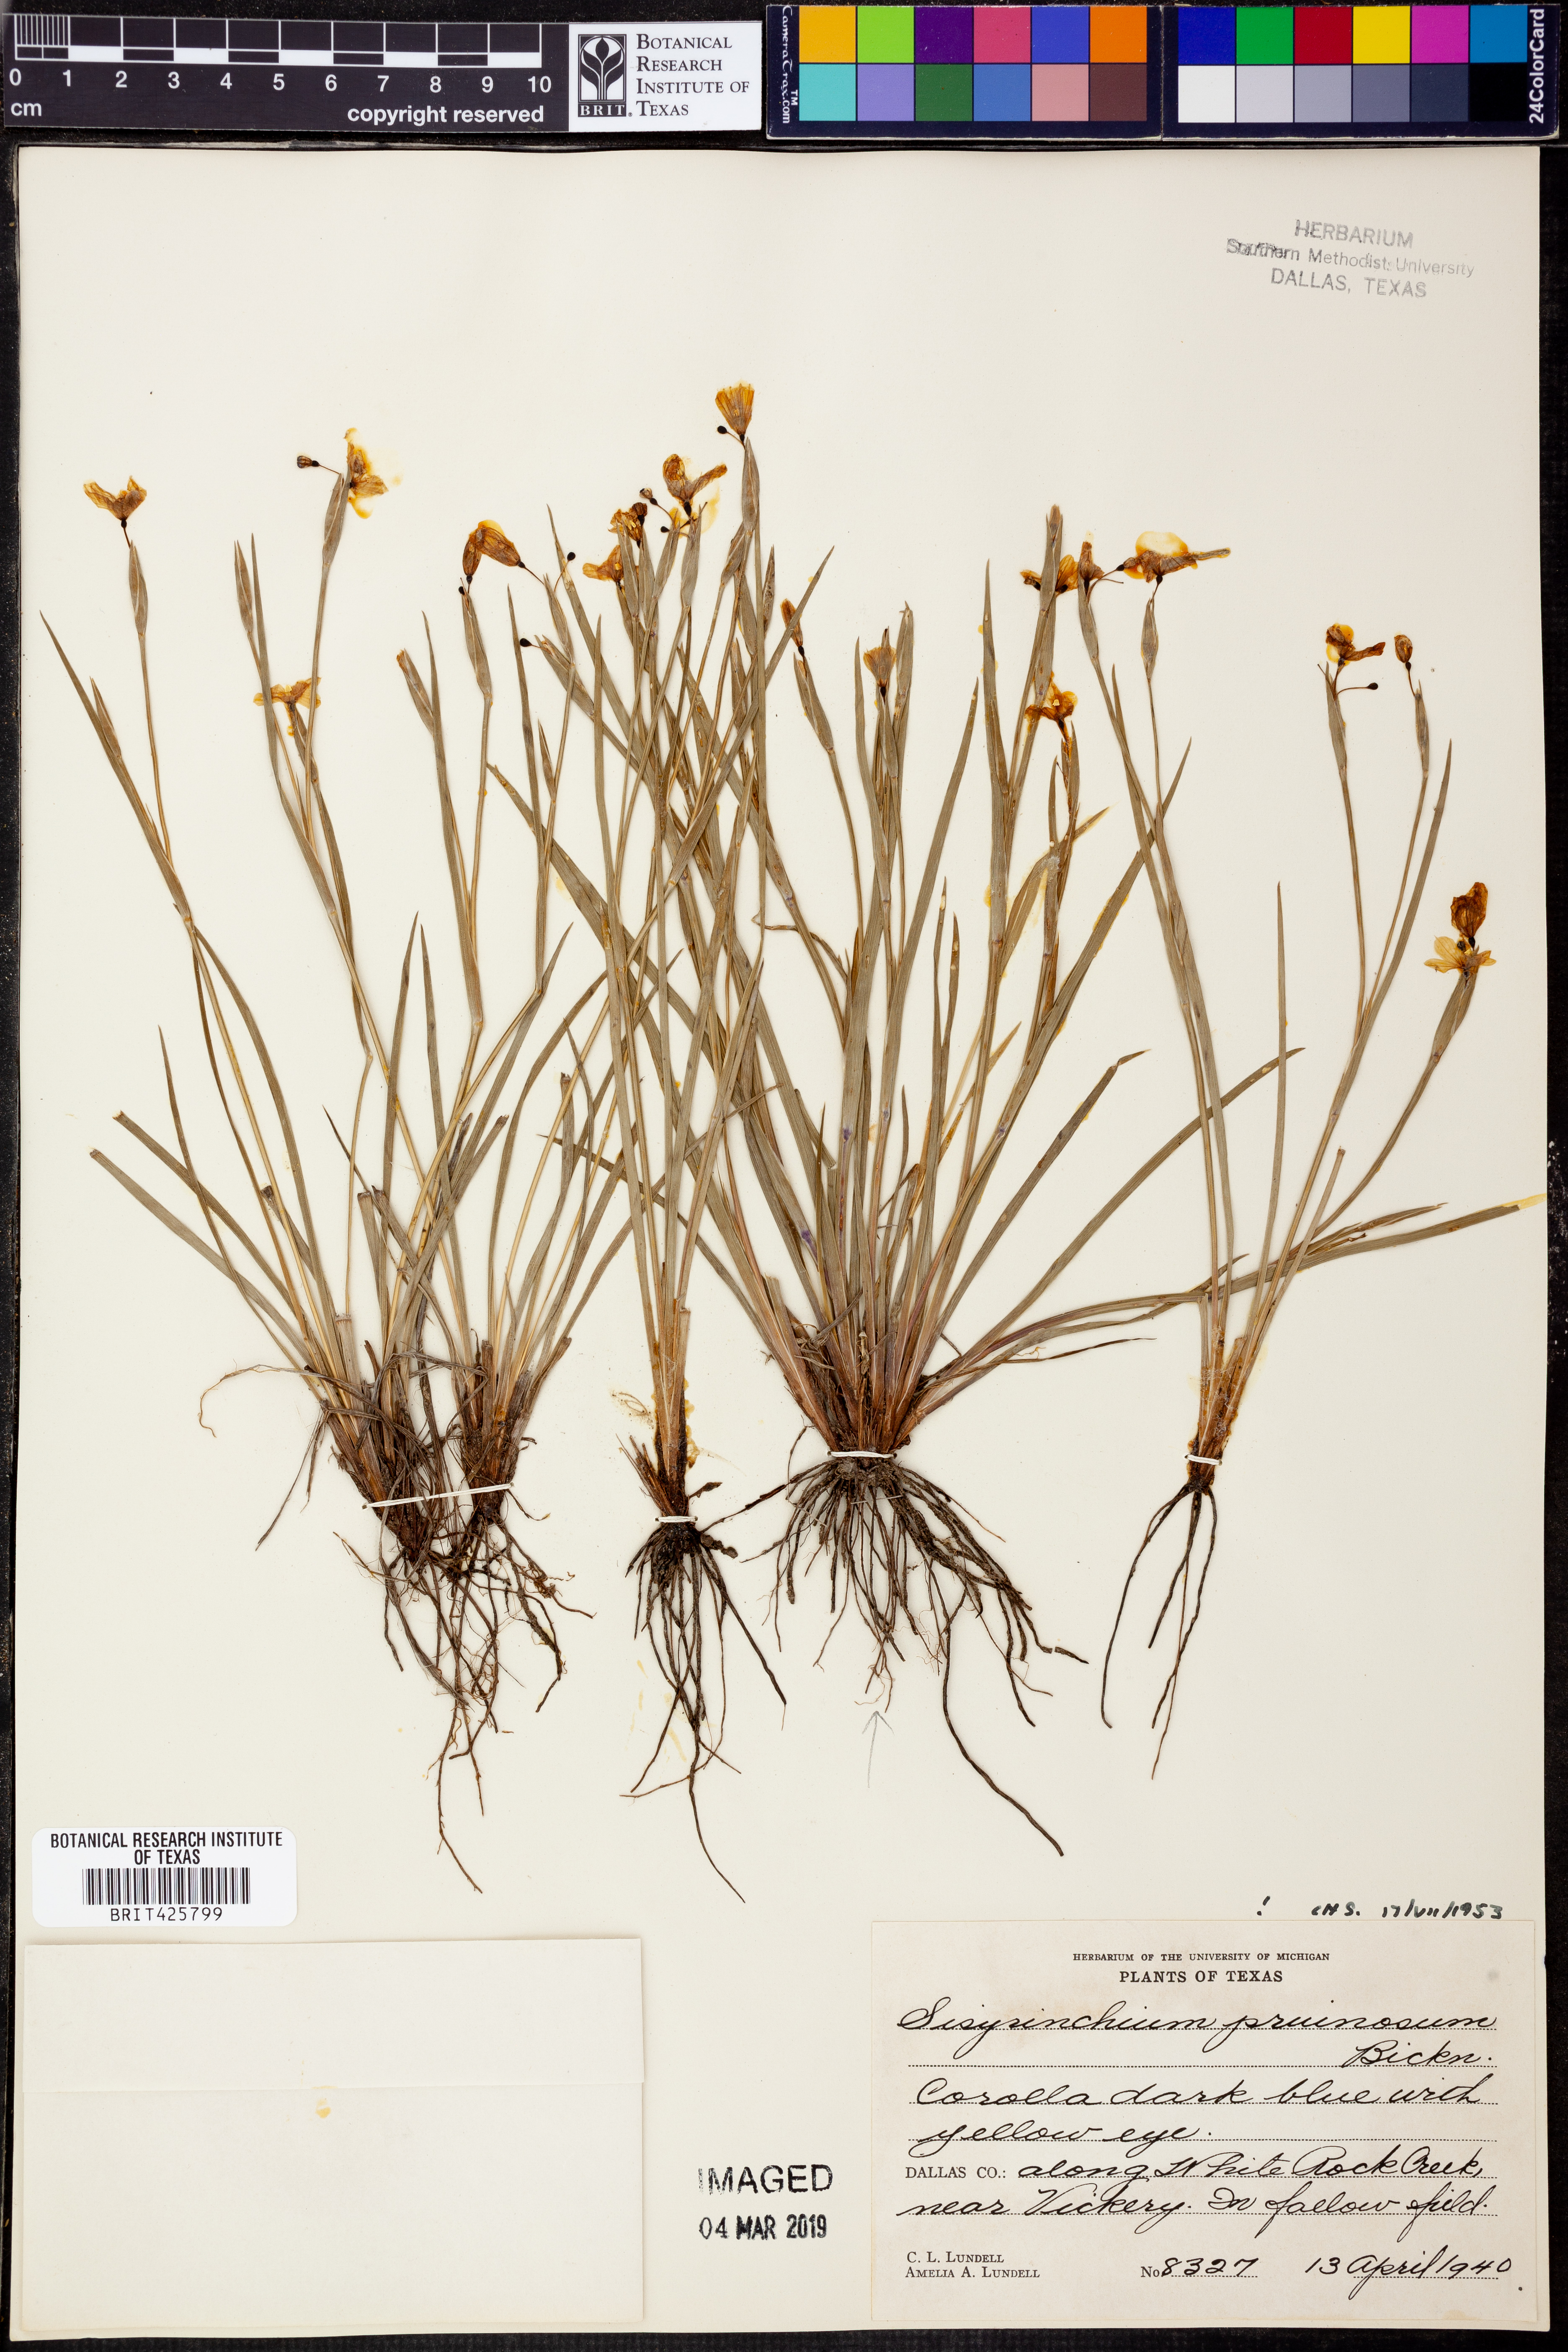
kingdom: Plantae
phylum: Tracheophyta
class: Liliopsida
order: Asparagales
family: Iridaceae
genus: Sisyrinchium
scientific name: Sisyrinchium pruinosum
